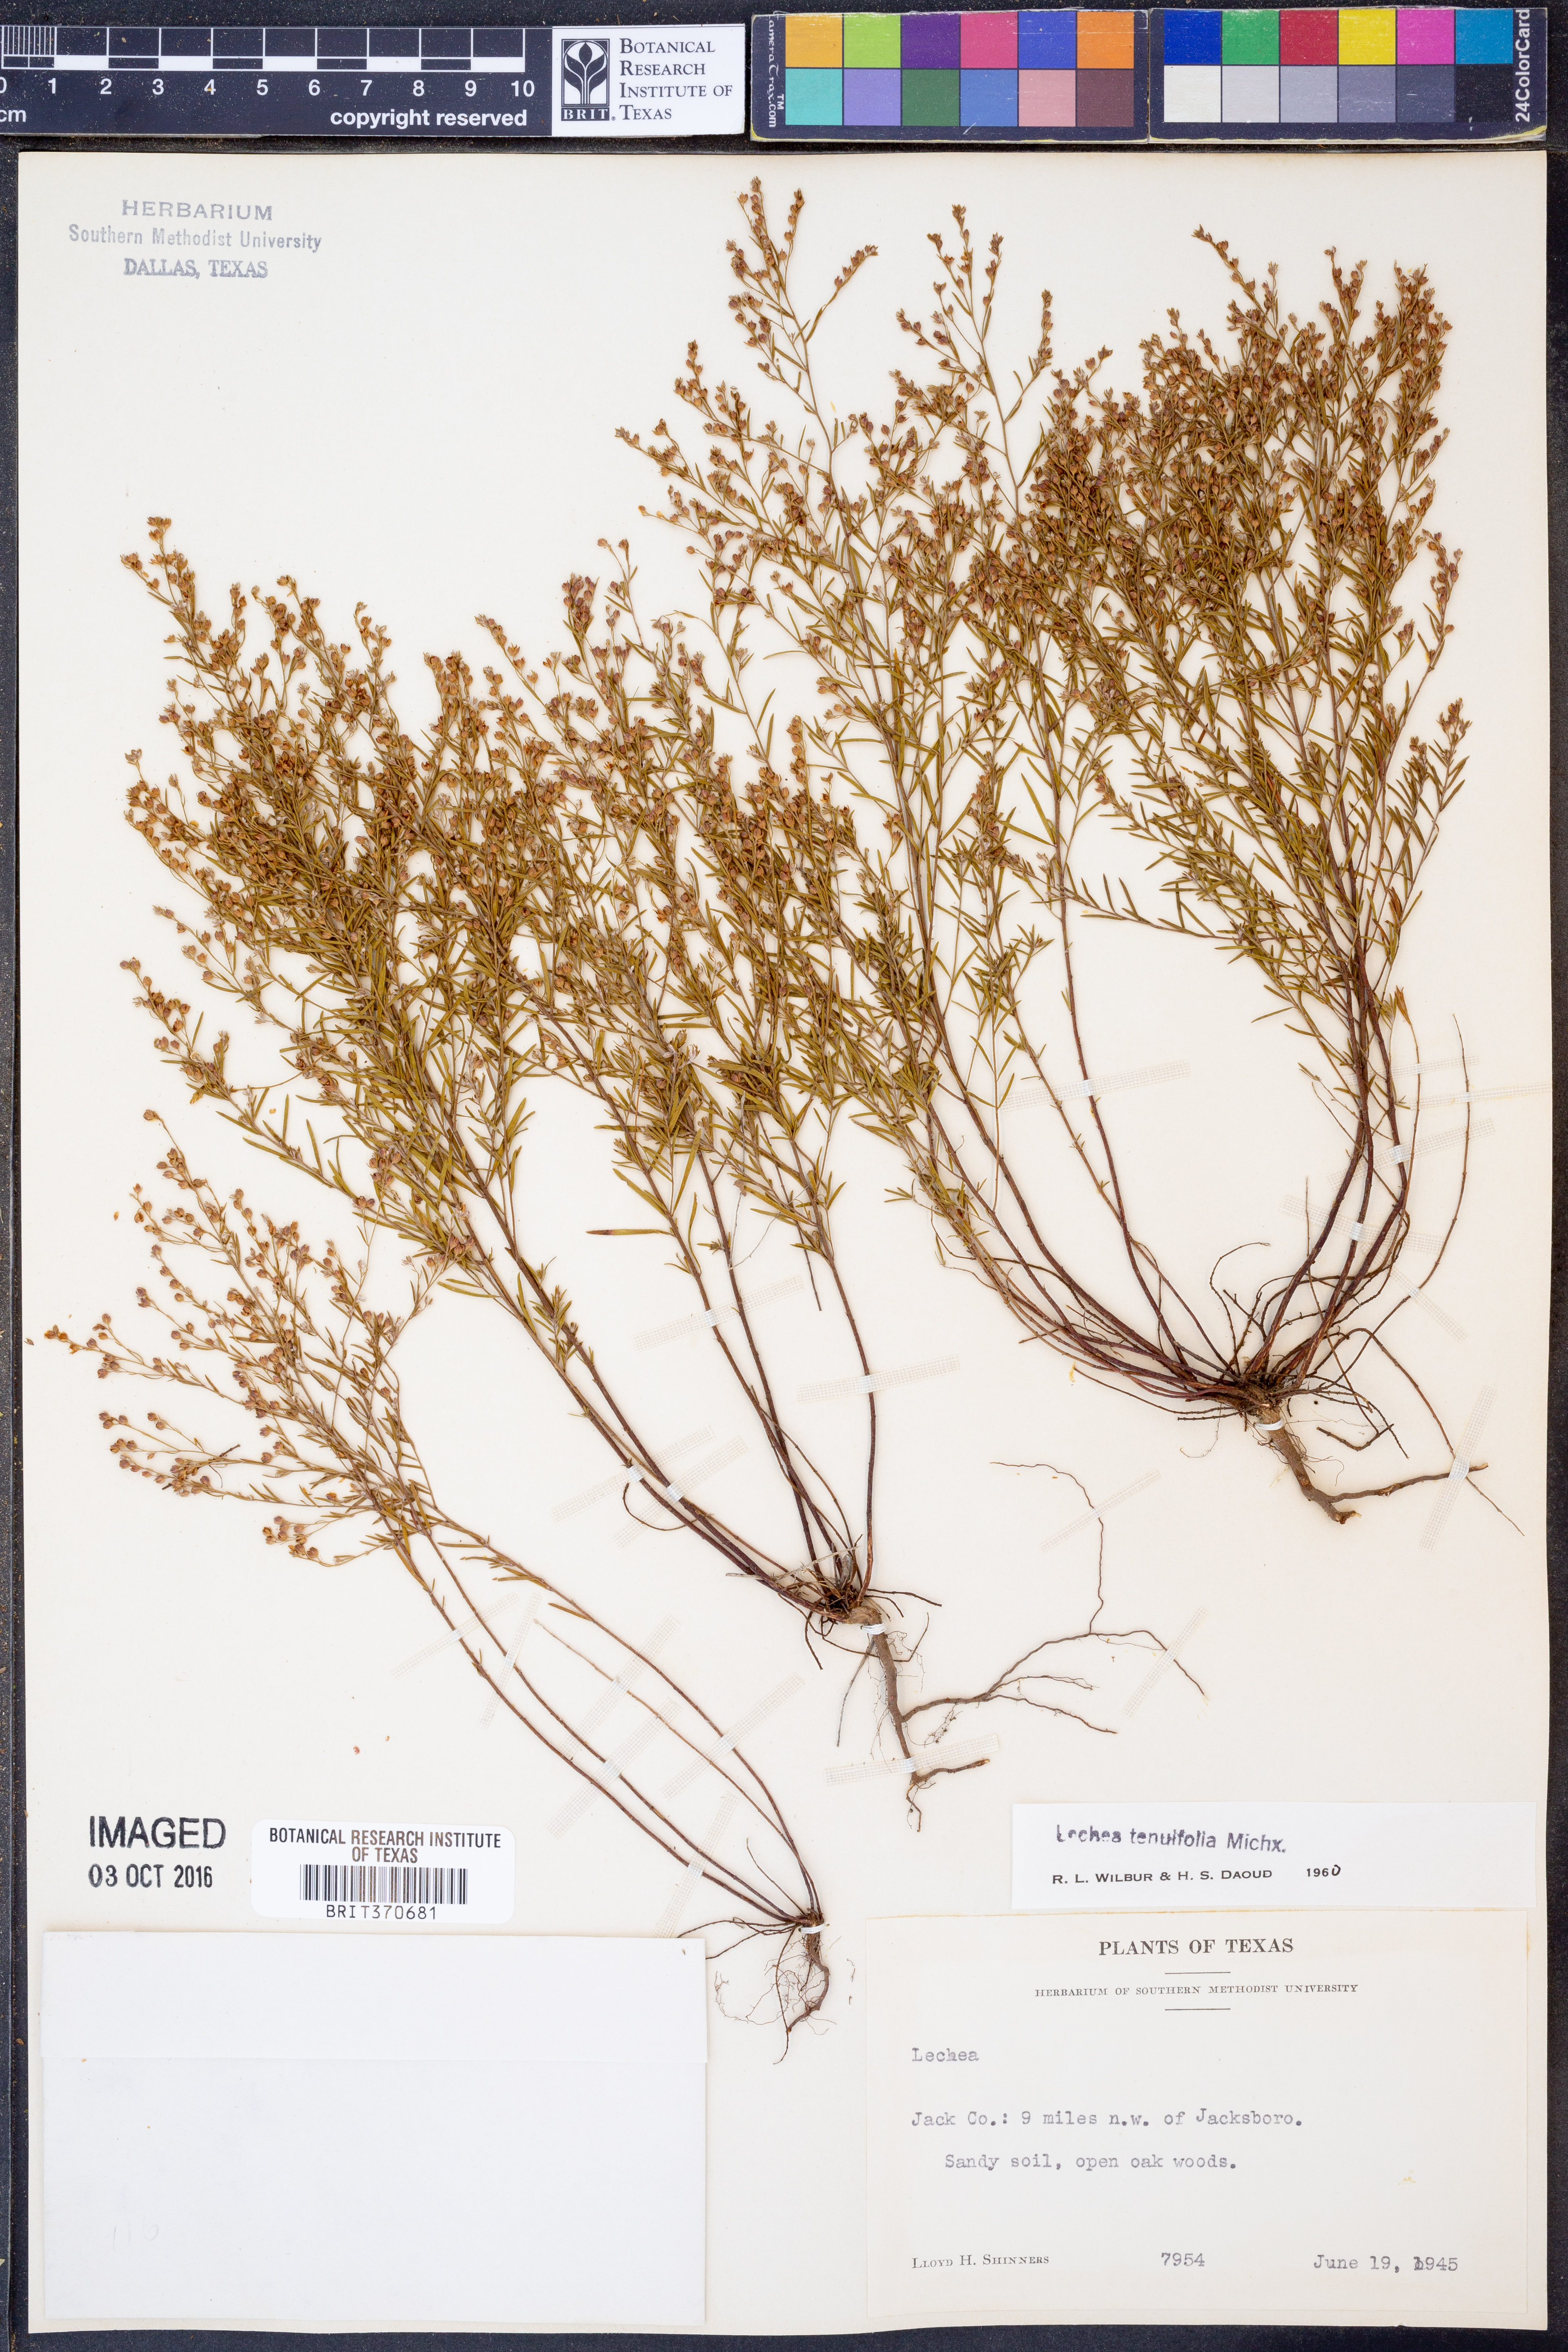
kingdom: Plantae
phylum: Tracheophyta
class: Magnoliopsida
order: Malvales
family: Cistaceae
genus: Lechea
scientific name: Lechea tenuifolia
